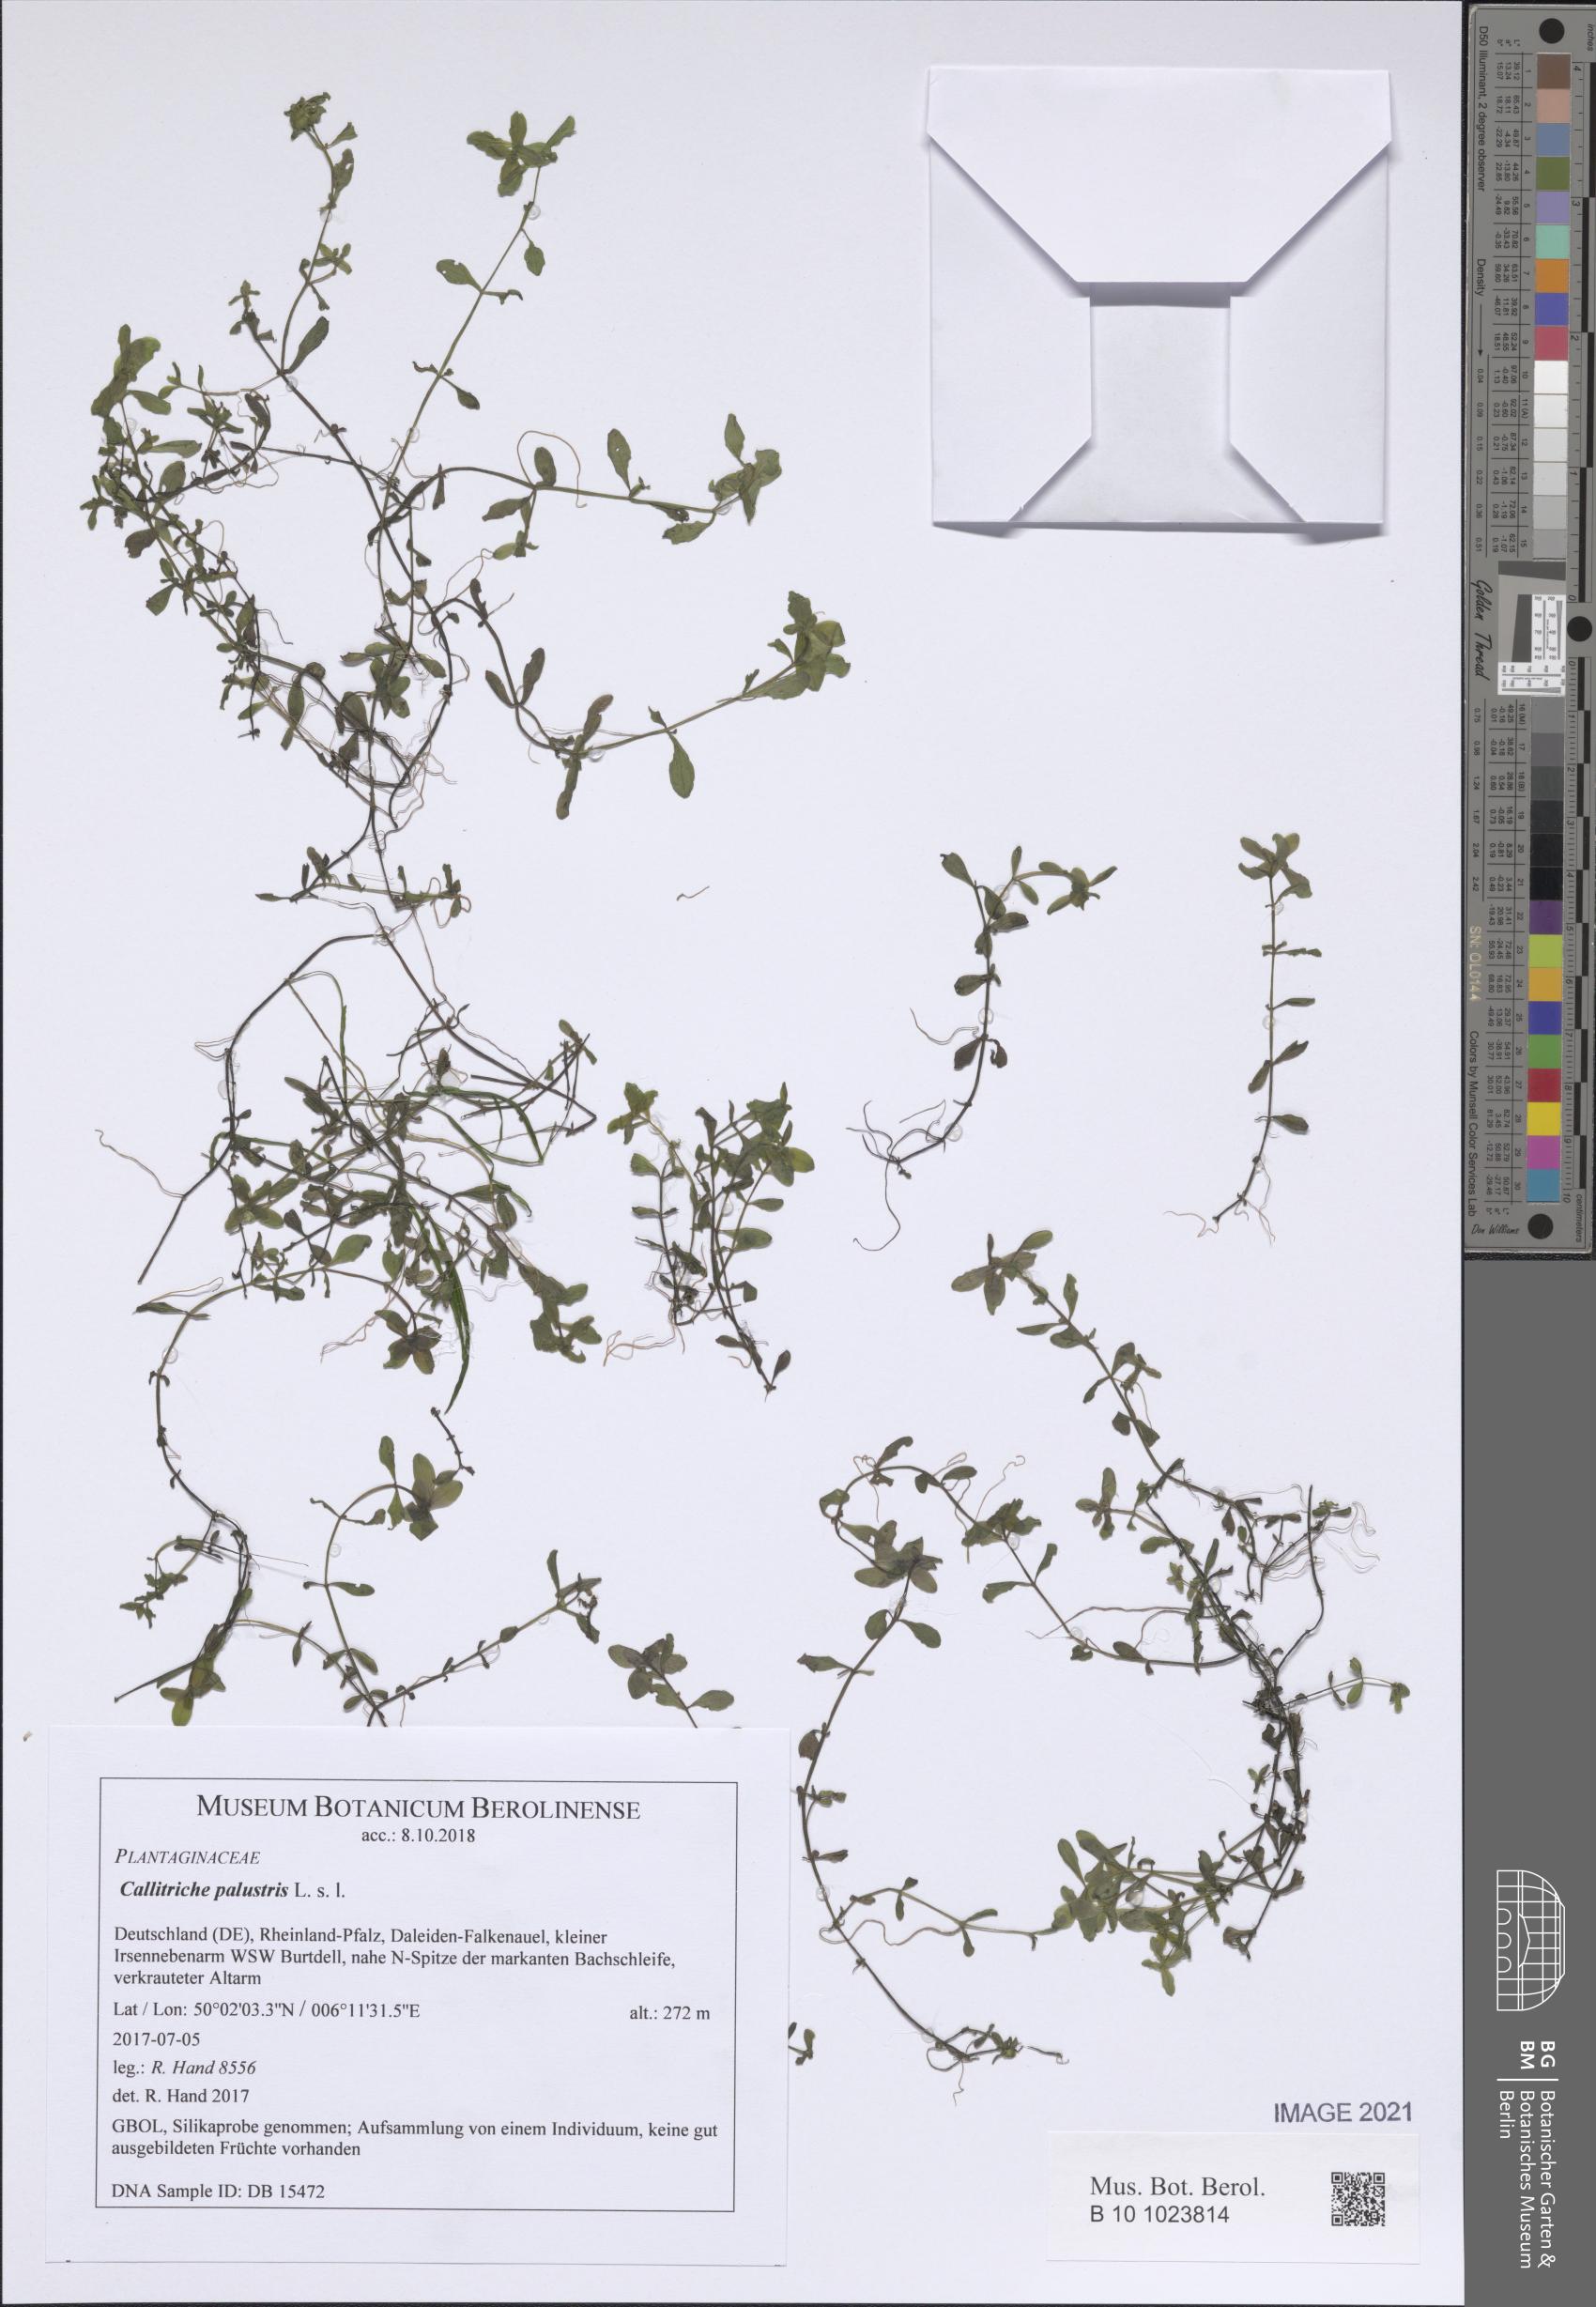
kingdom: Plantae
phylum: Tracheophyta
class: Magnoliopsida
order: Lamiales
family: Plantaginaceae
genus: Callitriche
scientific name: Callitriche palustris
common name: Spring water-starwort
